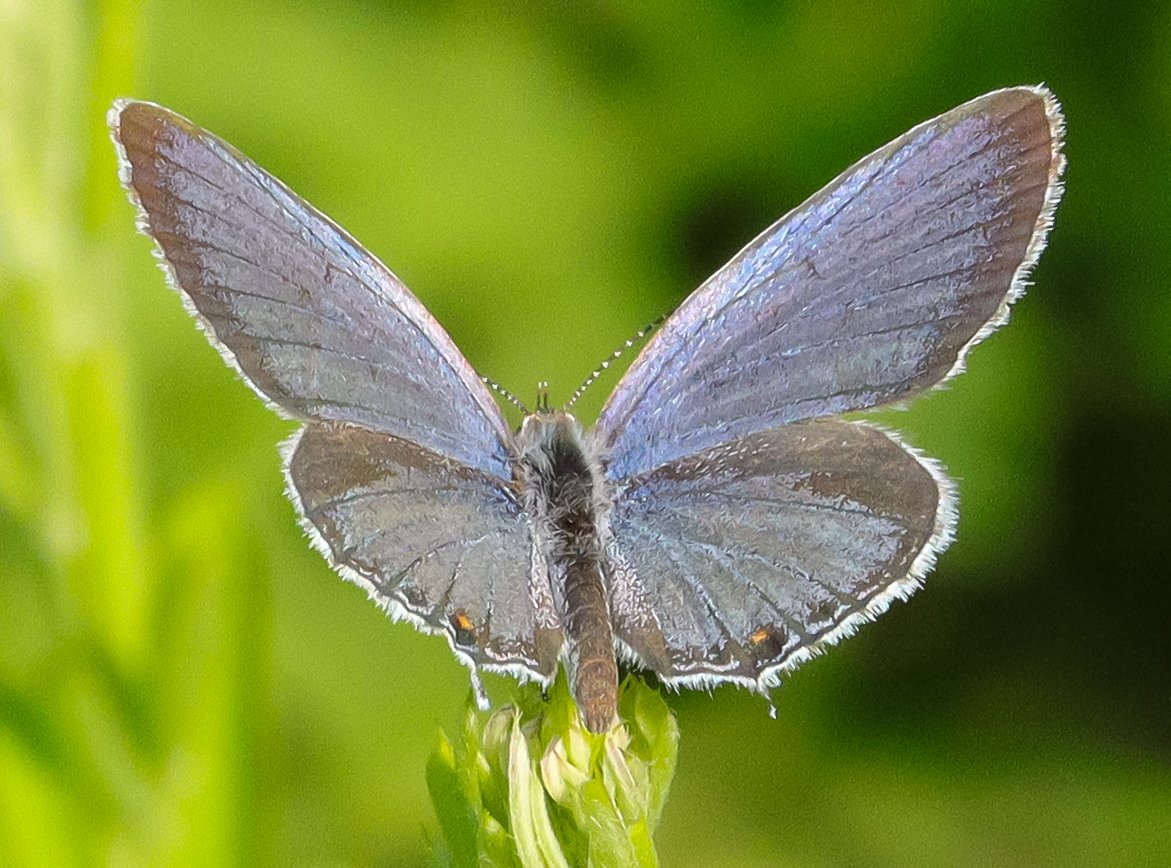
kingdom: Animalia
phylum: Arthropoda
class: Insecta
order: Lepidoptera
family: Lycaenidae
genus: Elkalyce
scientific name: Elkalyce comyntas
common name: Eastern Tailed-Blue
